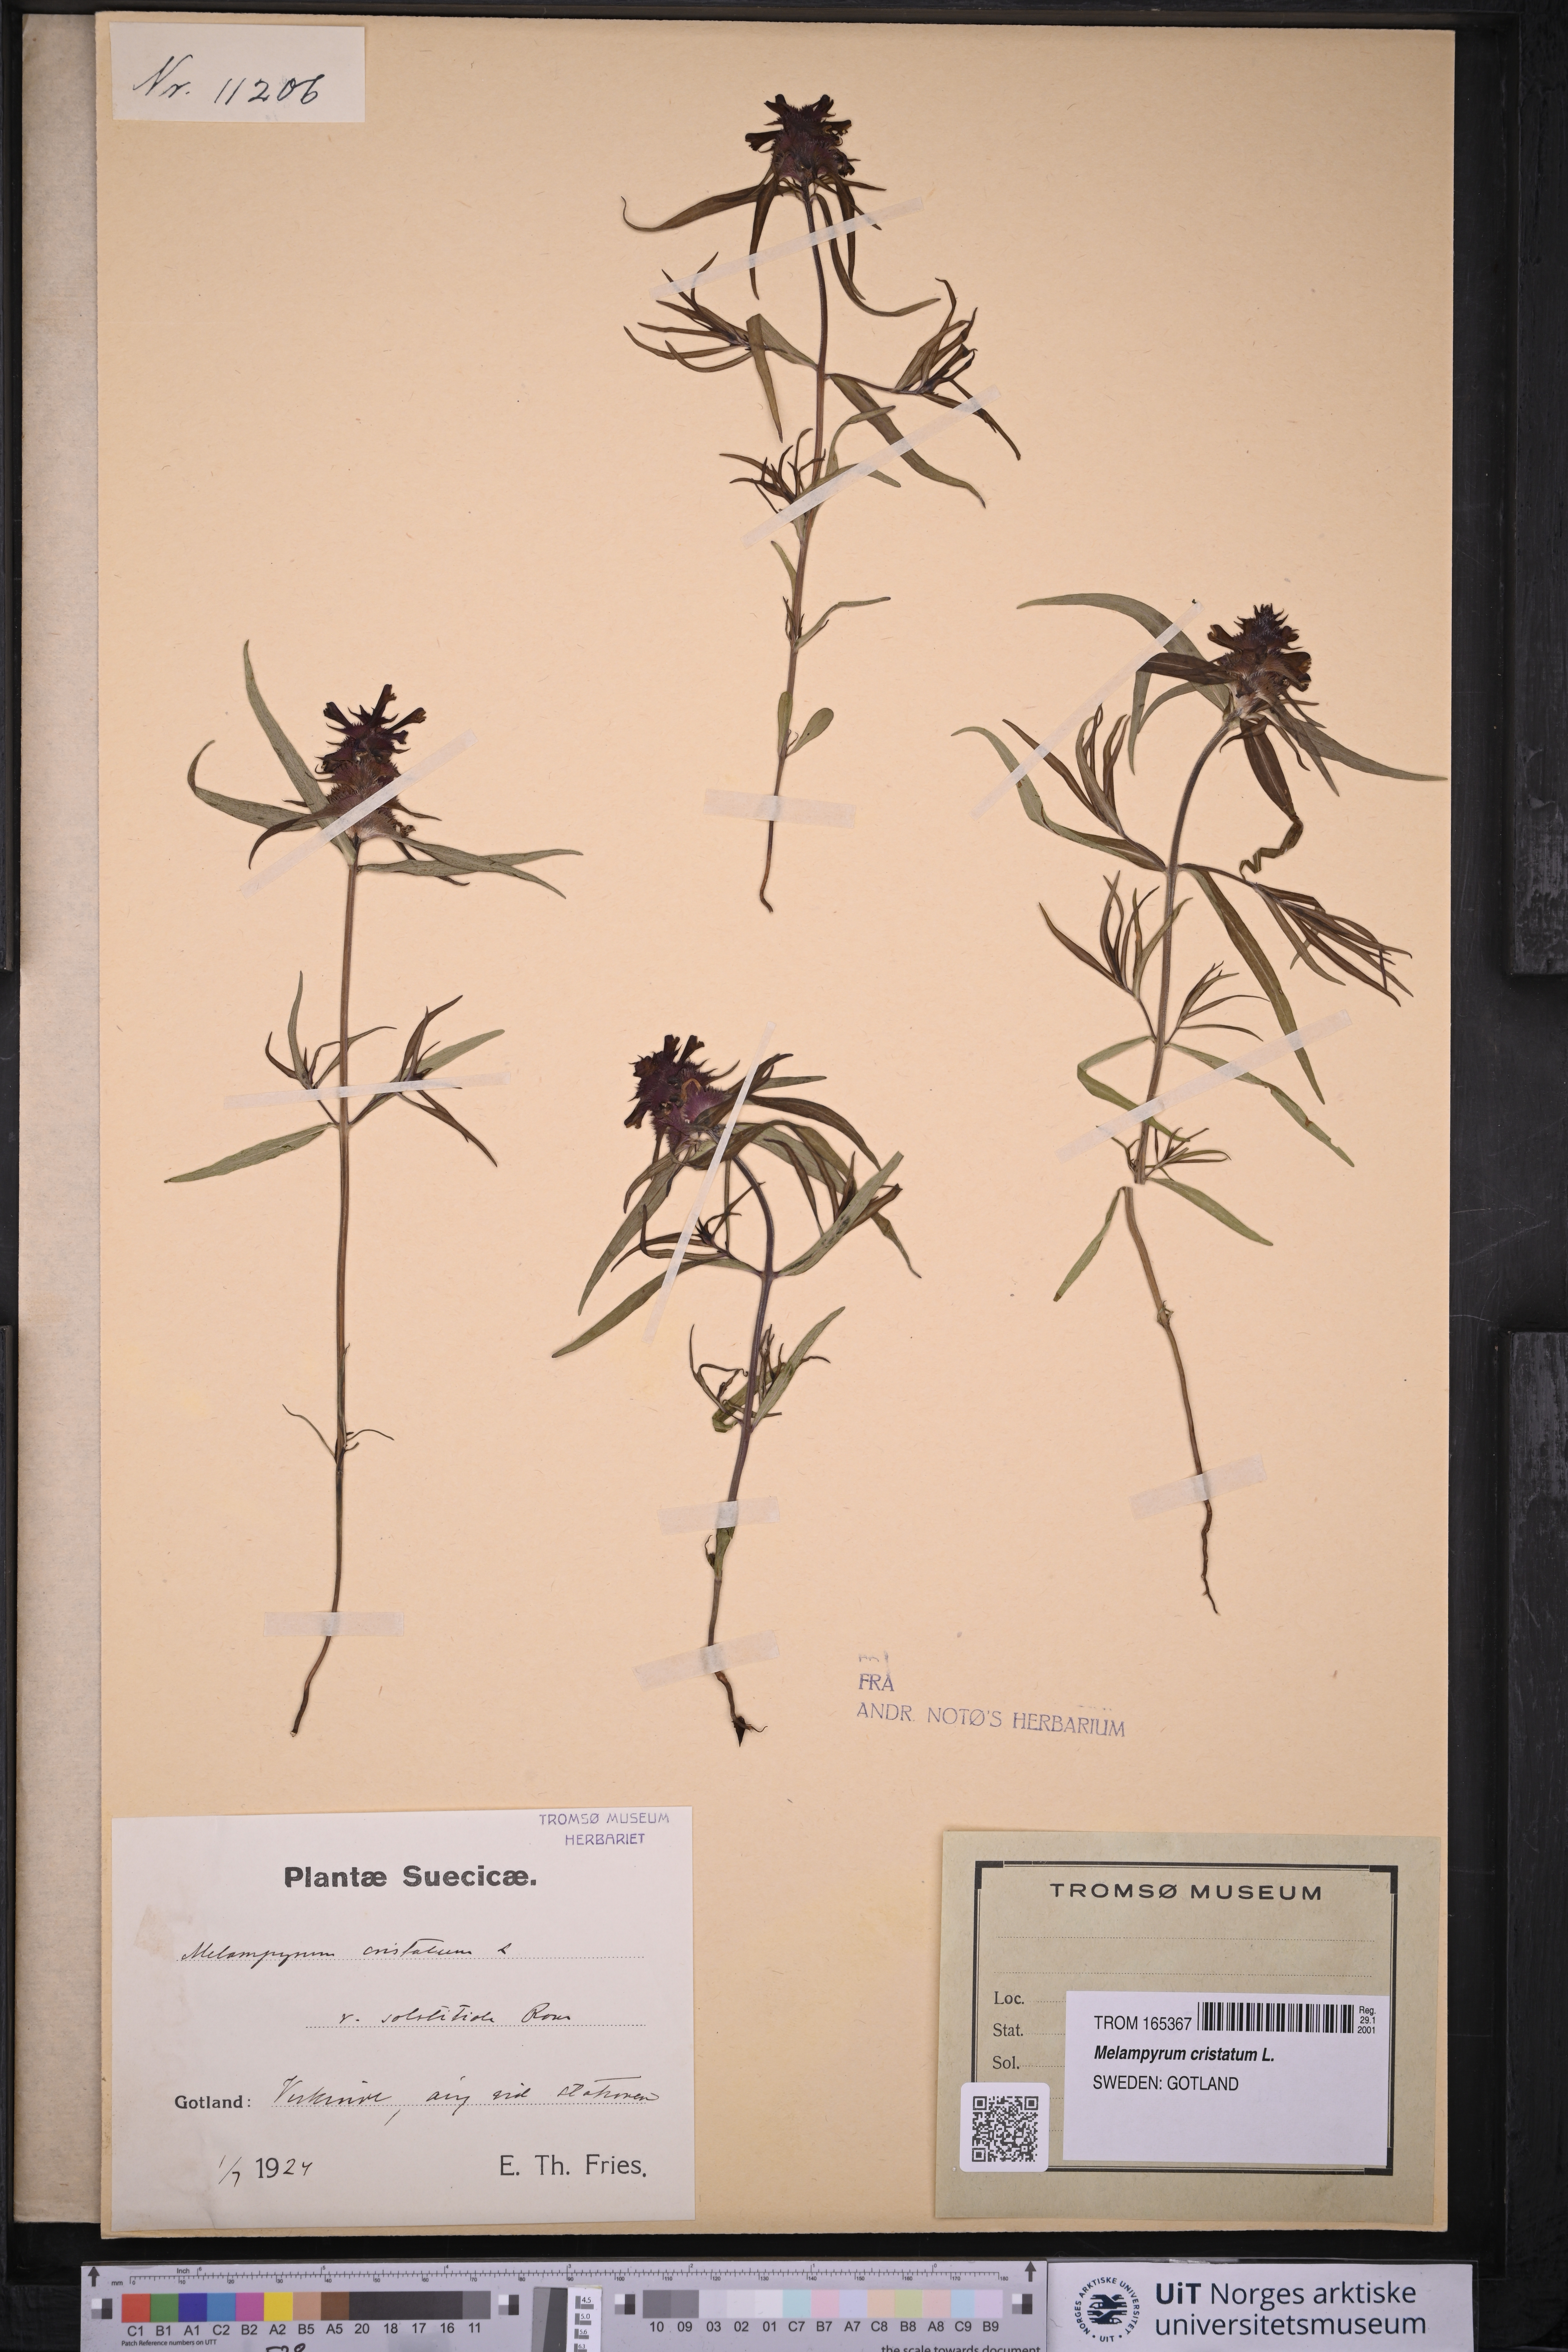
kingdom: Plantae
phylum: Tracheophyta
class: Magnoliopsida
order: Lamiales
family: Orobanchaceae
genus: Melampyrum
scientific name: Melampyrum cristatum
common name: Crested cow-wheat
